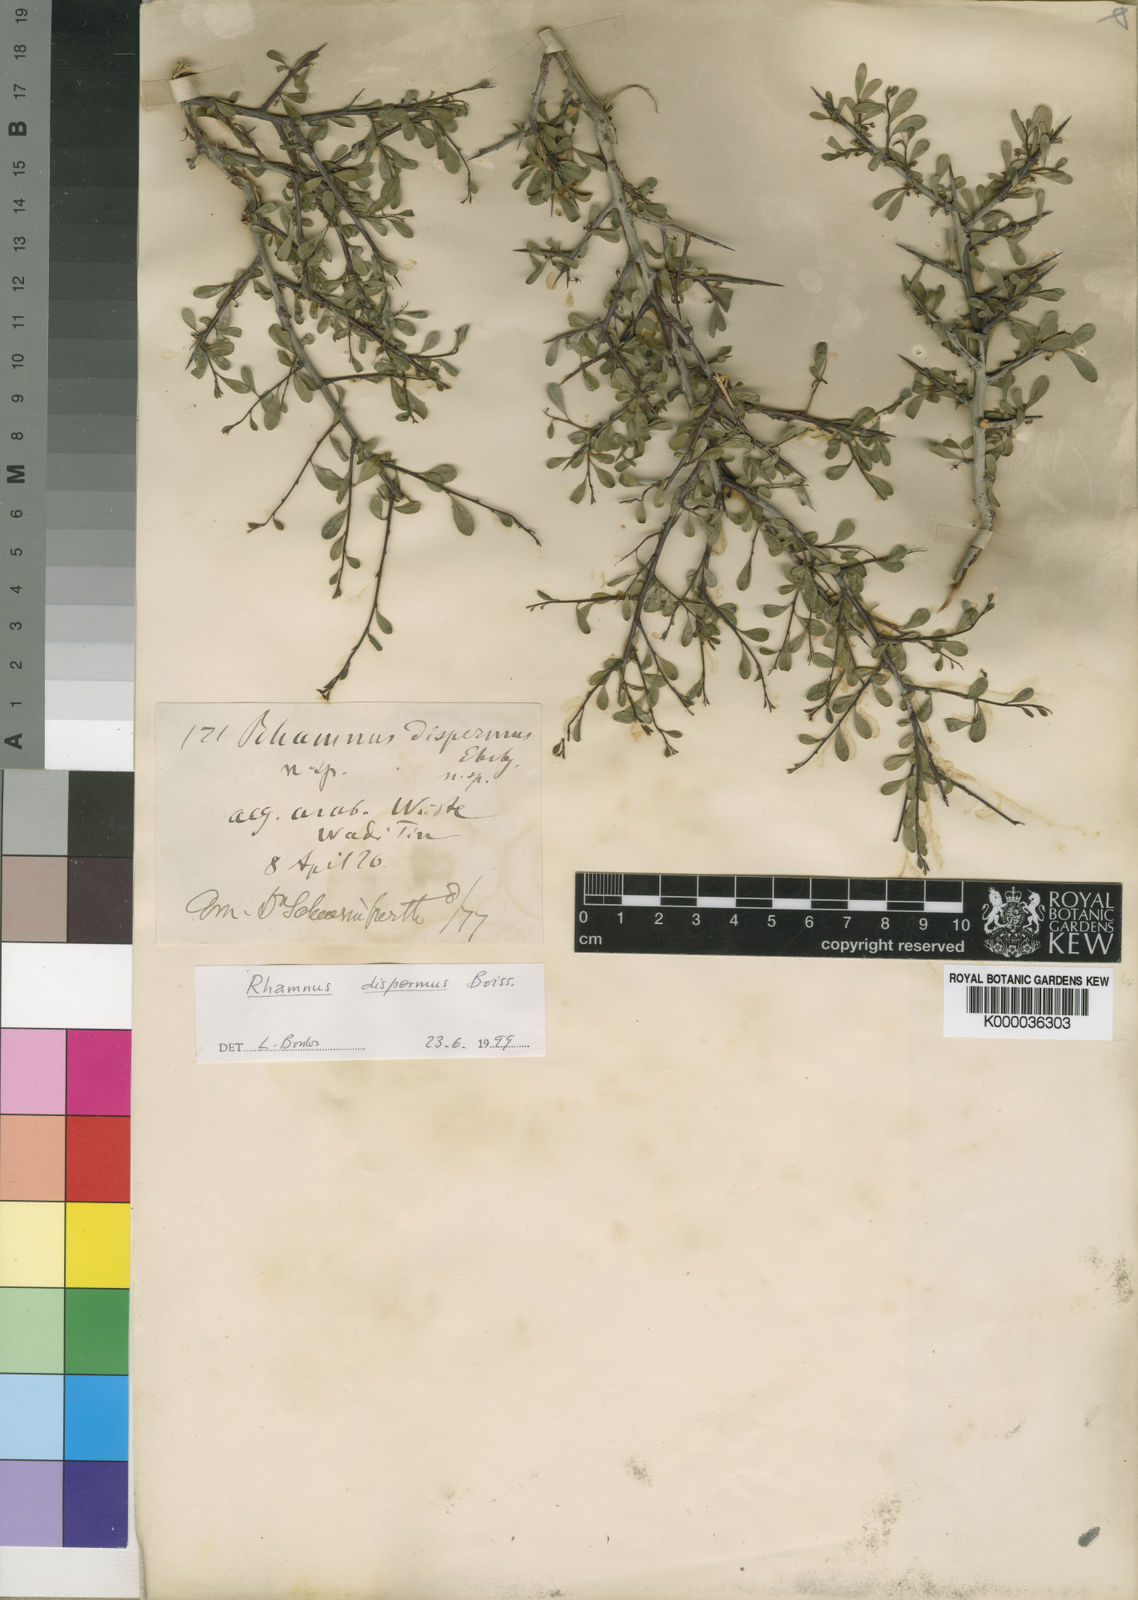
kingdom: Plantae
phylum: Tracheophyta
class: Magnoliopsida
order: Rosales
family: Rhamnaceae
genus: Rhamnus
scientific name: Rhamnus disperma
